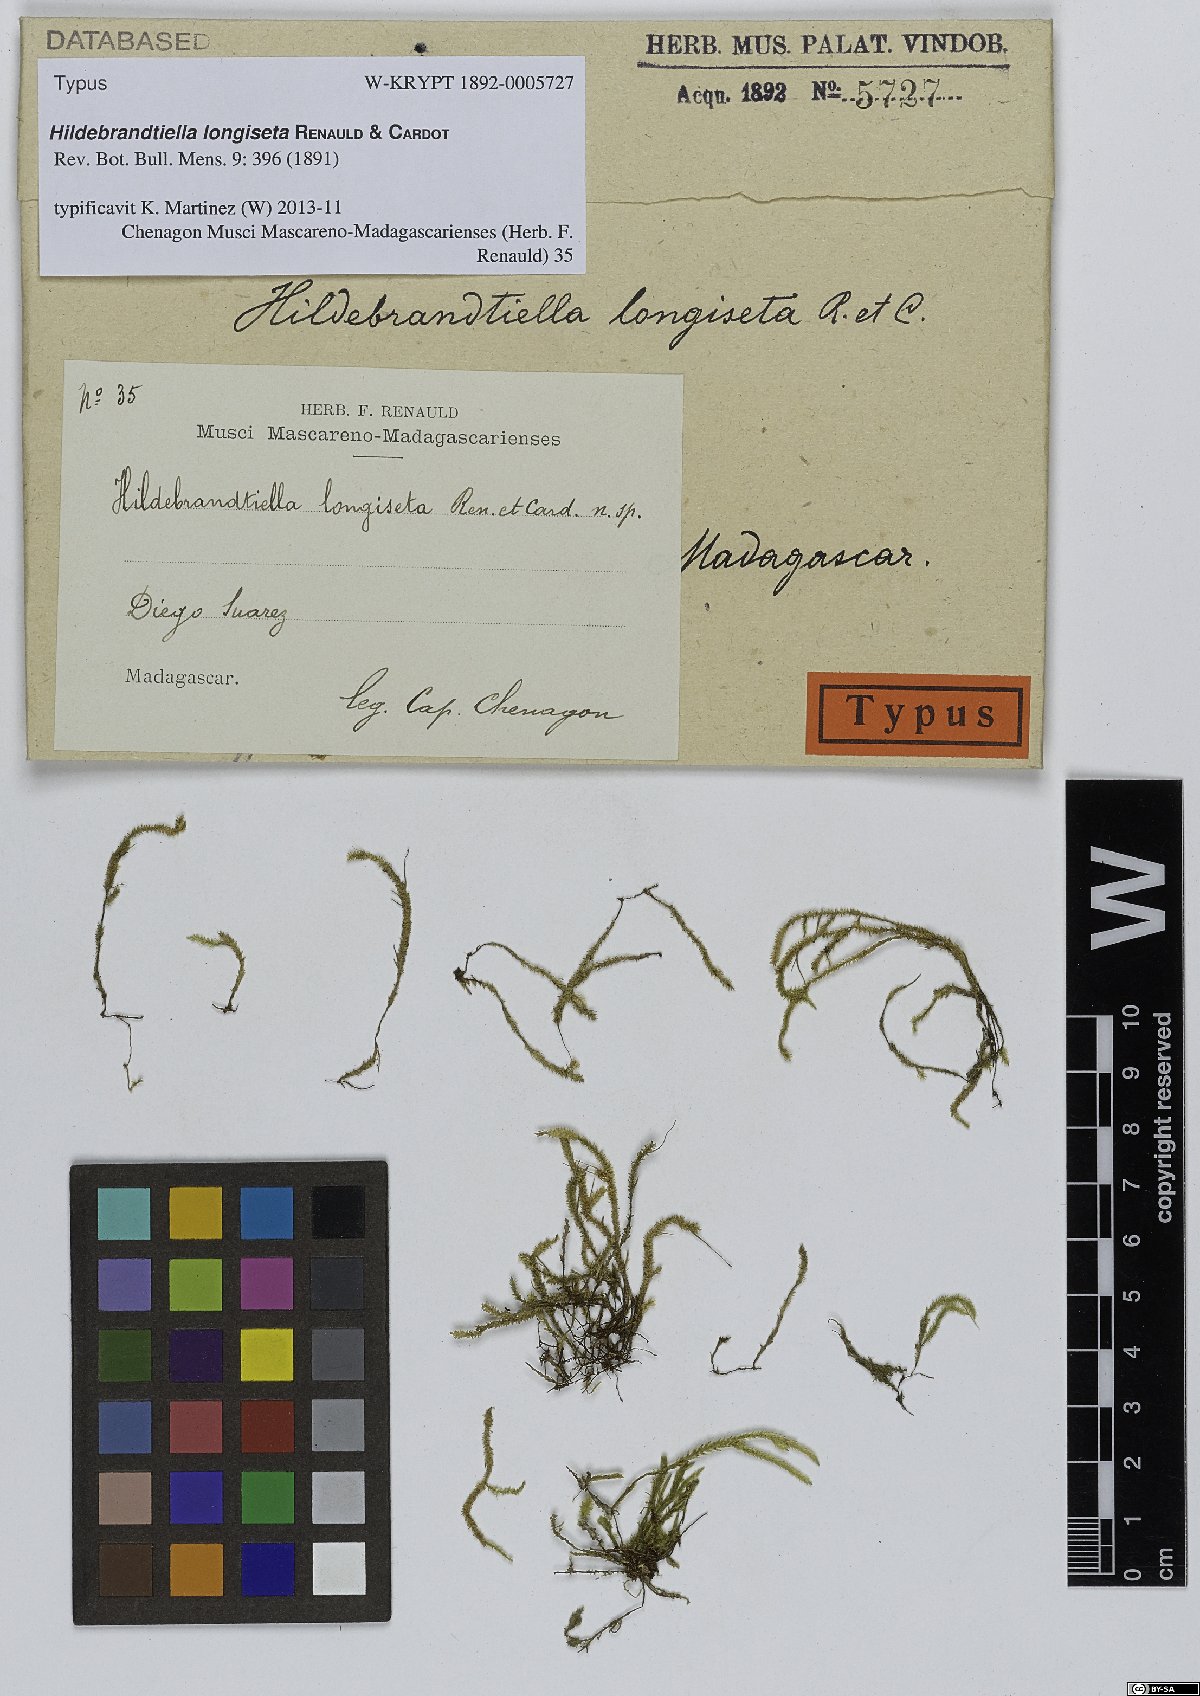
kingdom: Plantae
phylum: Bryophyta
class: Bryopsida
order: Hypnales
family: Pterobryaceae
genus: Hildebrandtiella
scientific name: Hildebrandtiella longiseta
